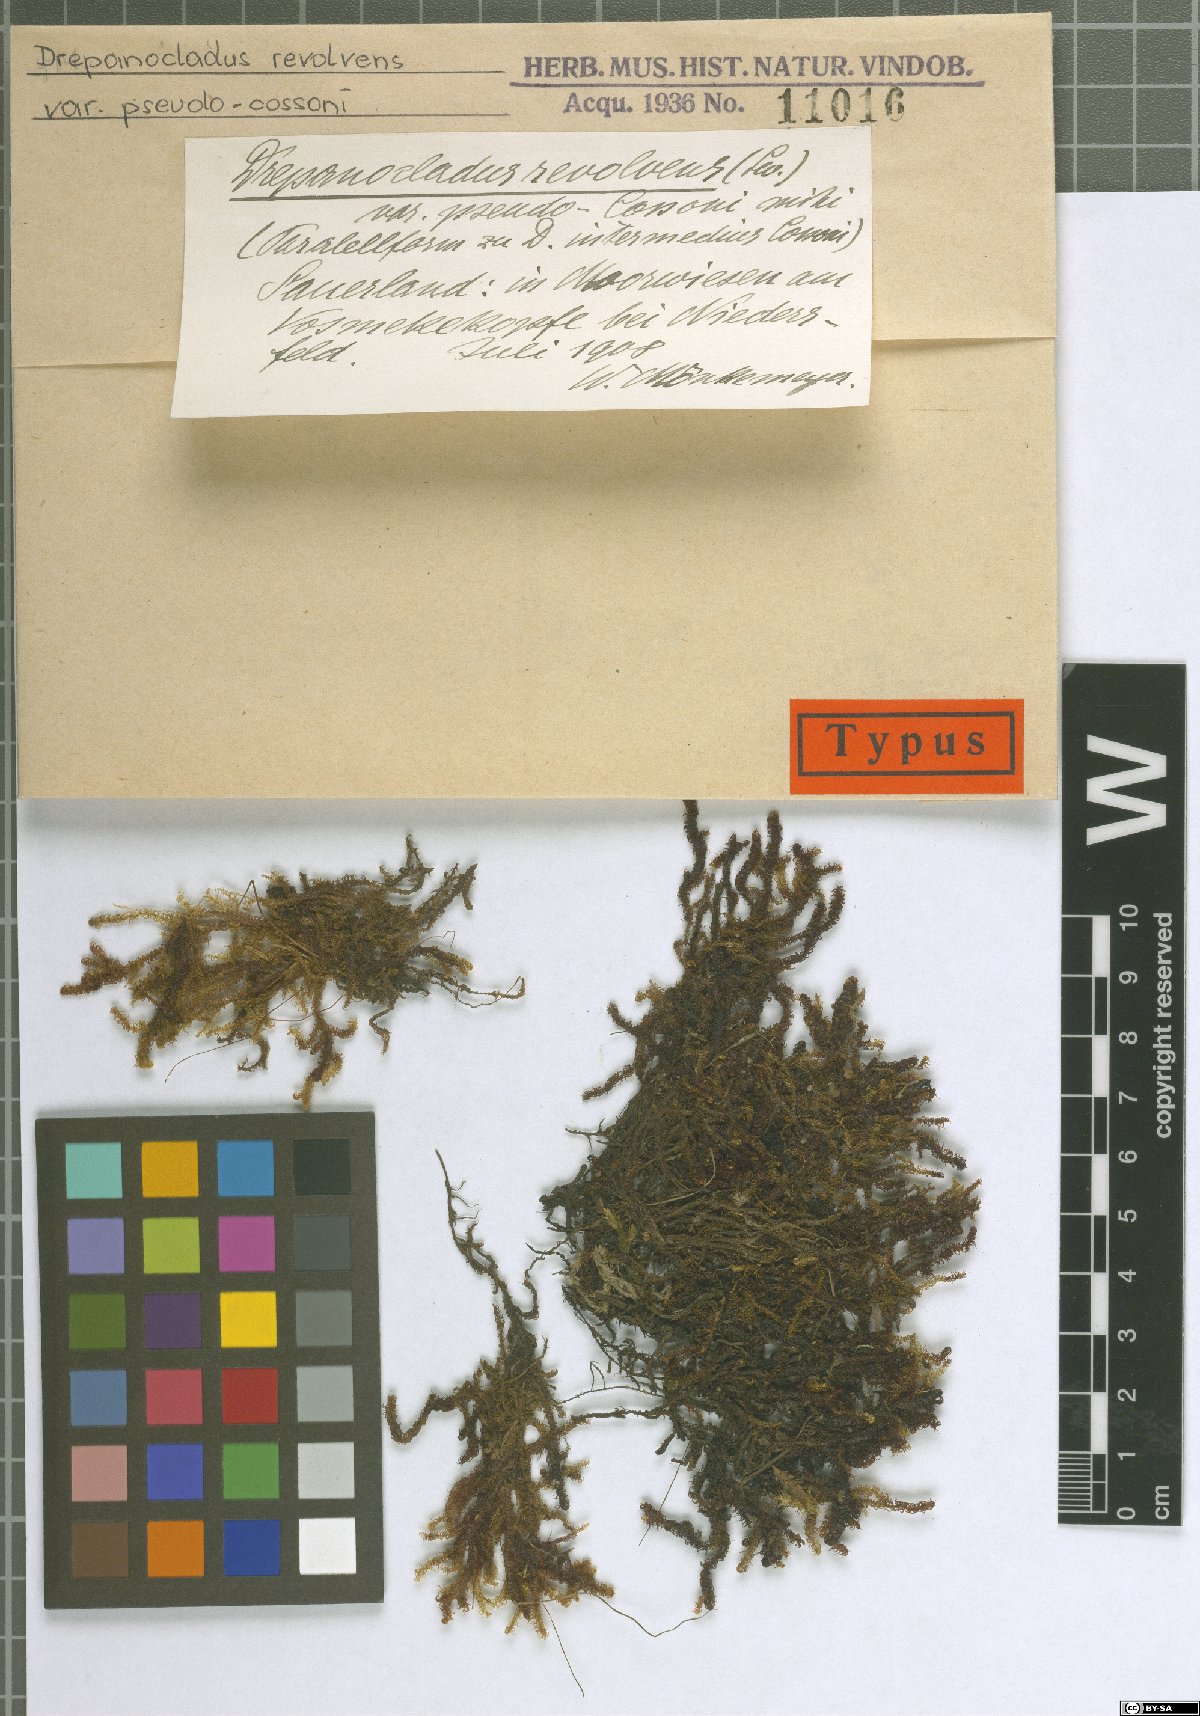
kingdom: Plantae
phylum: Bryophyta
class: Bryopsida
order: Hypnales
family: Scorpidiaceae
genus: Scorpidium
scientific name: Scorpidium revolvens
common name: Rusty hook moss
